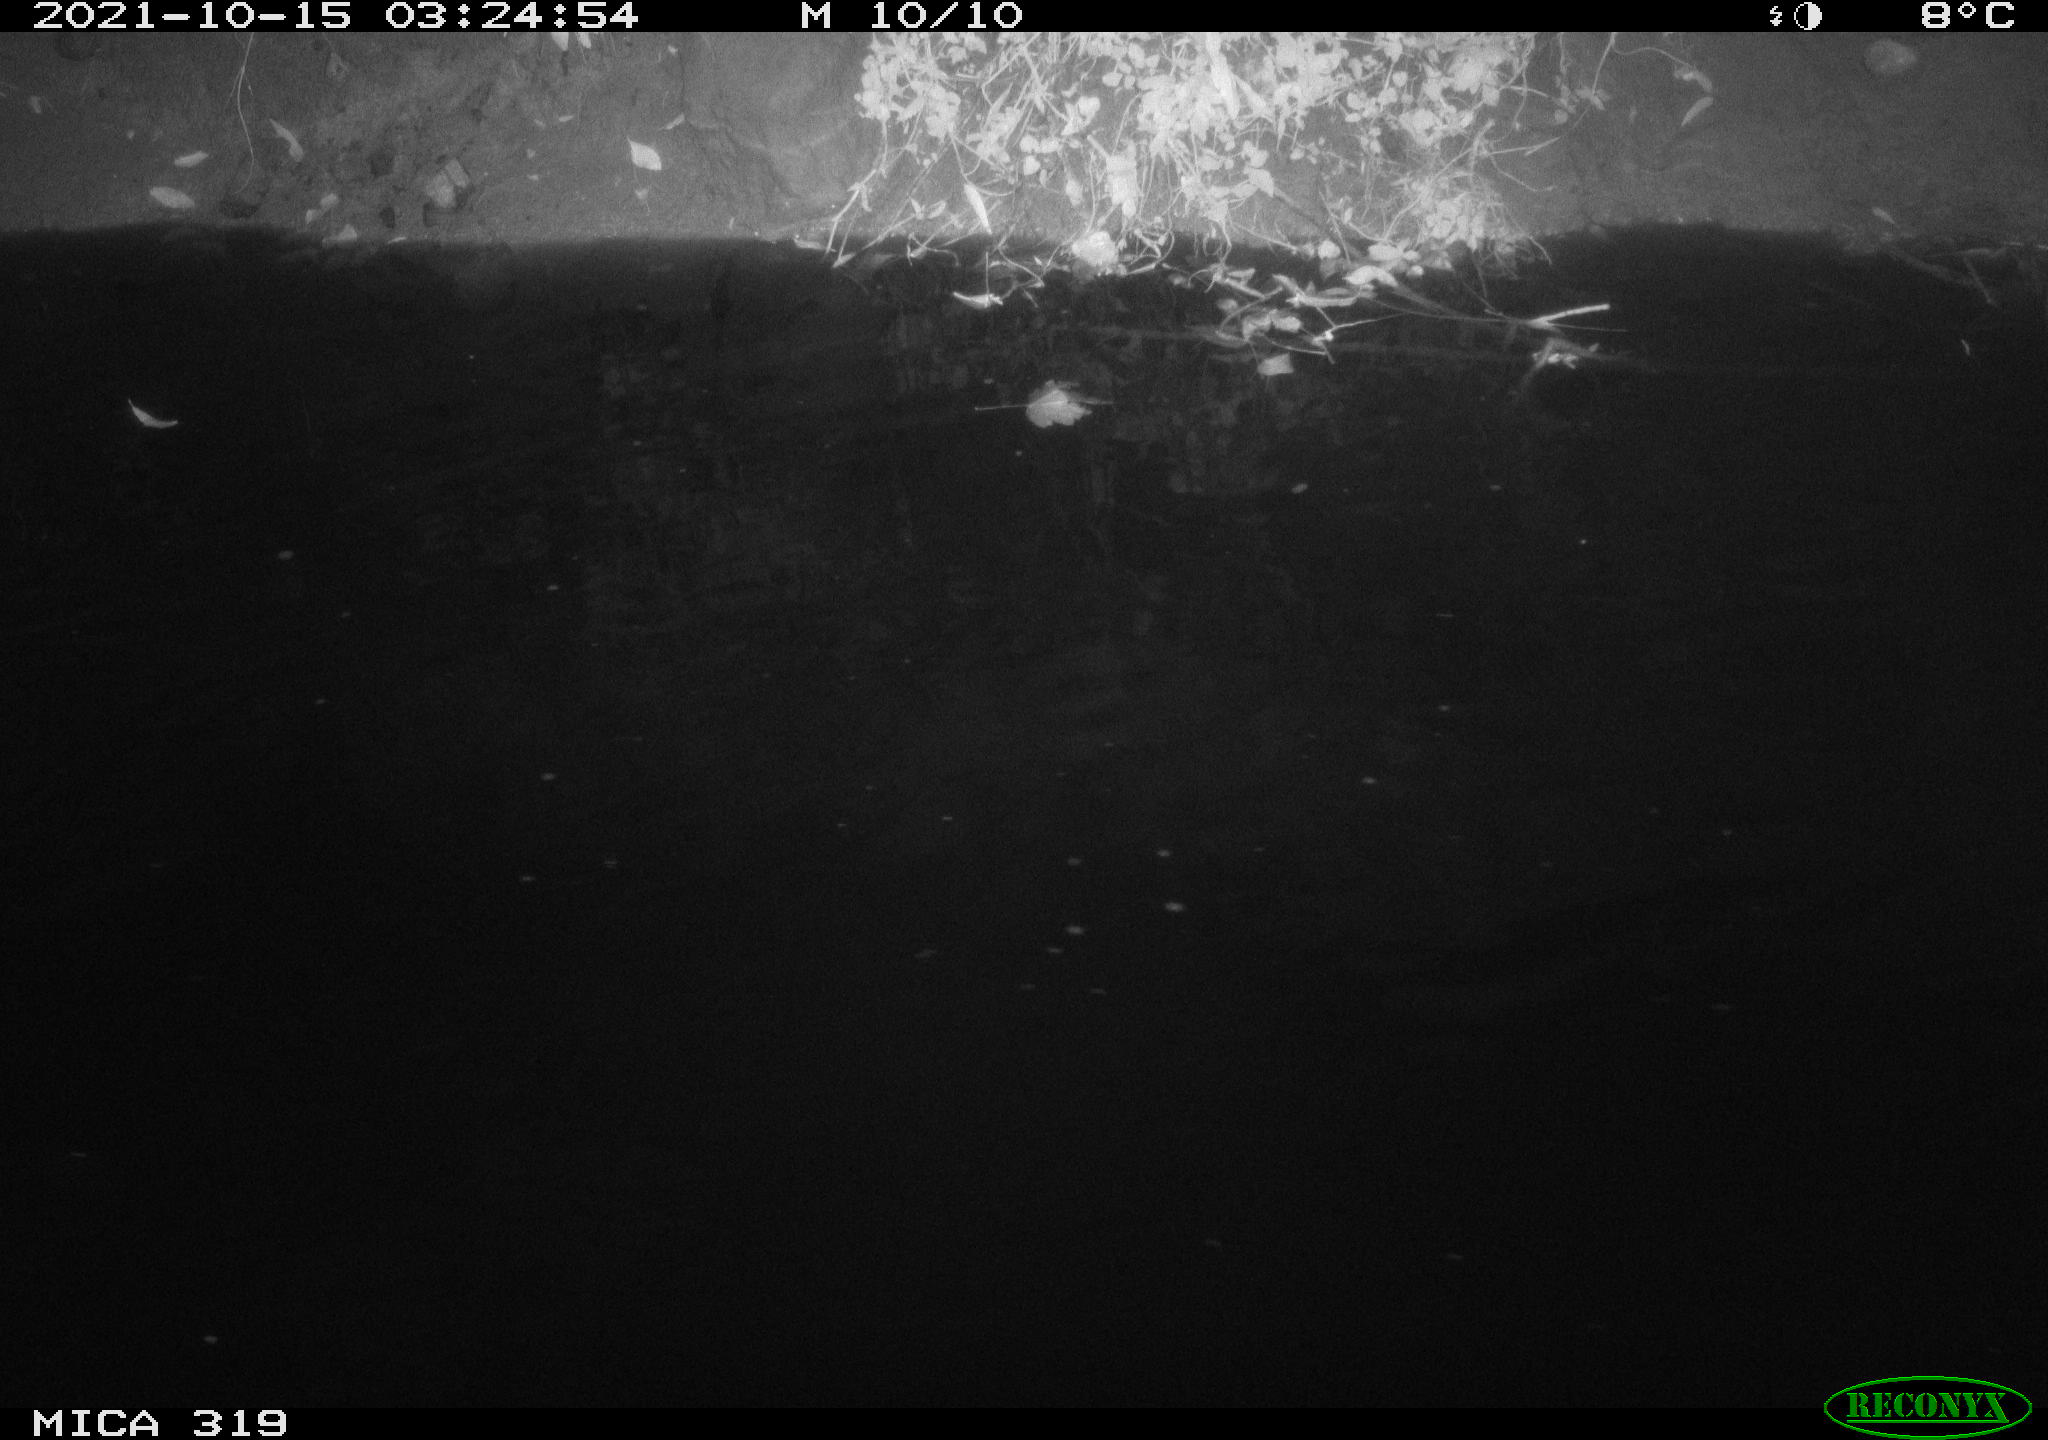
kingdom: Animalia
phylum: Chordata
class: Aves
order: Anseriformes
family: Anatidae
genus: Anas
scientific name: Anas platyrhynchos
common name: Mallard
